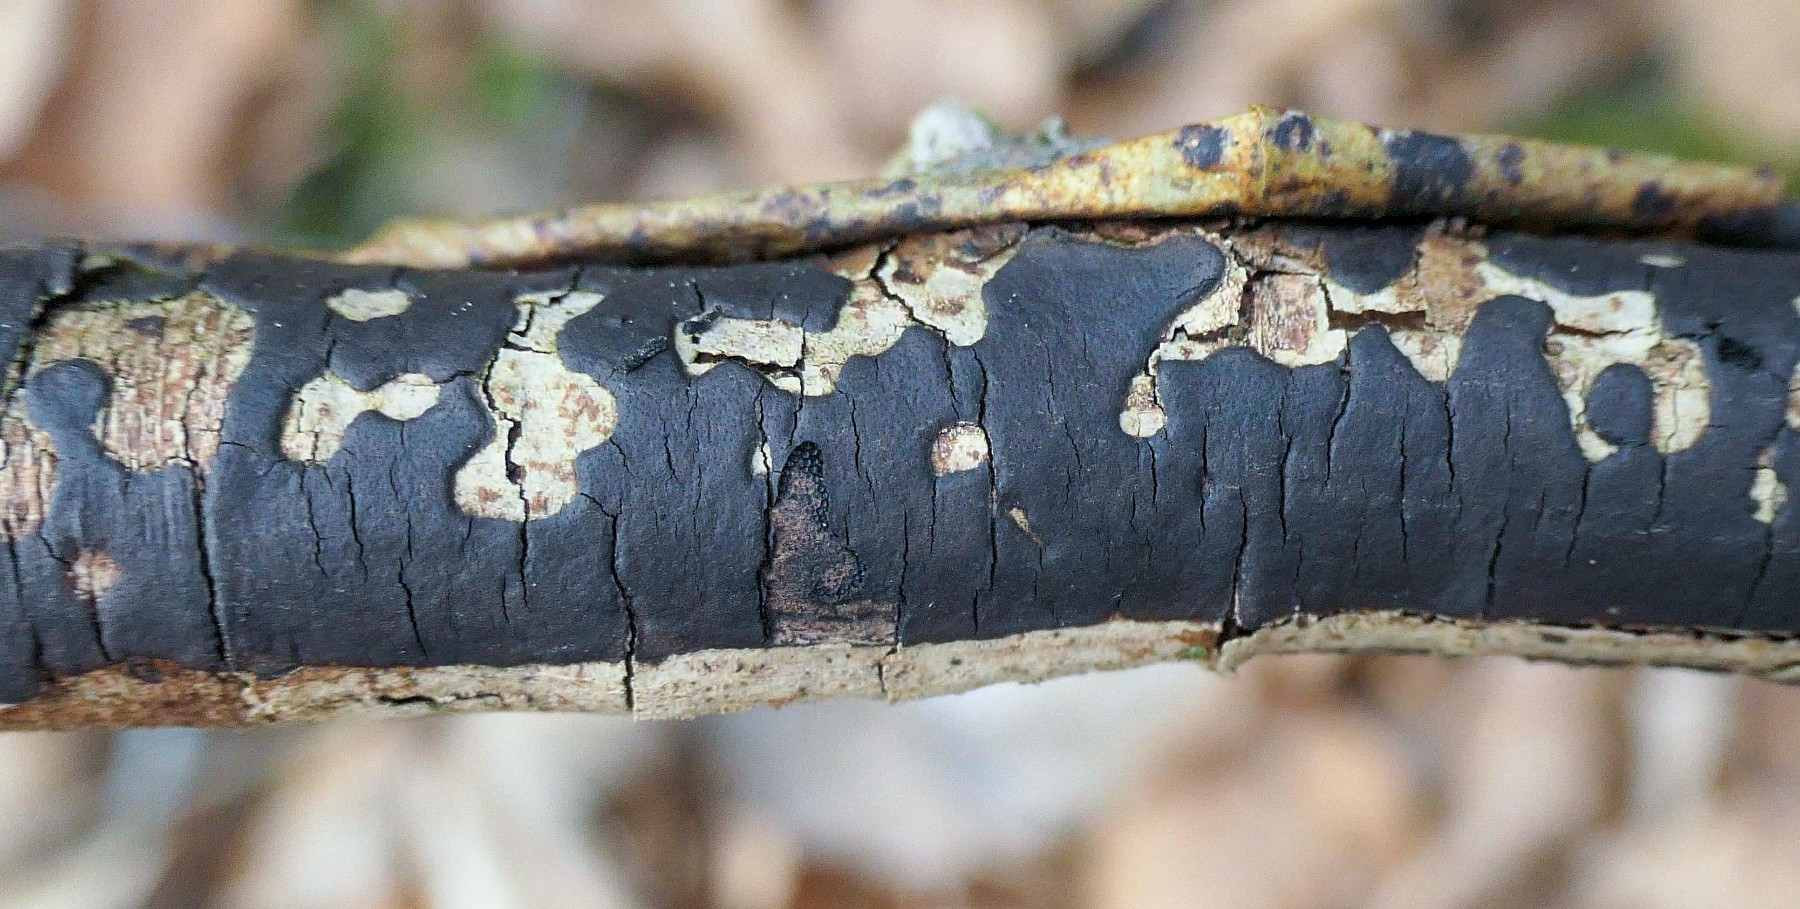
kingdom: Fungi
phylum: Ascomycota
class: Sordariomycetes
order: Xylariales
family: Diatrypaceae
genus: Diatrype
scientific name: Diatrype decorticata
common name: barksprænger-kulskorpe
